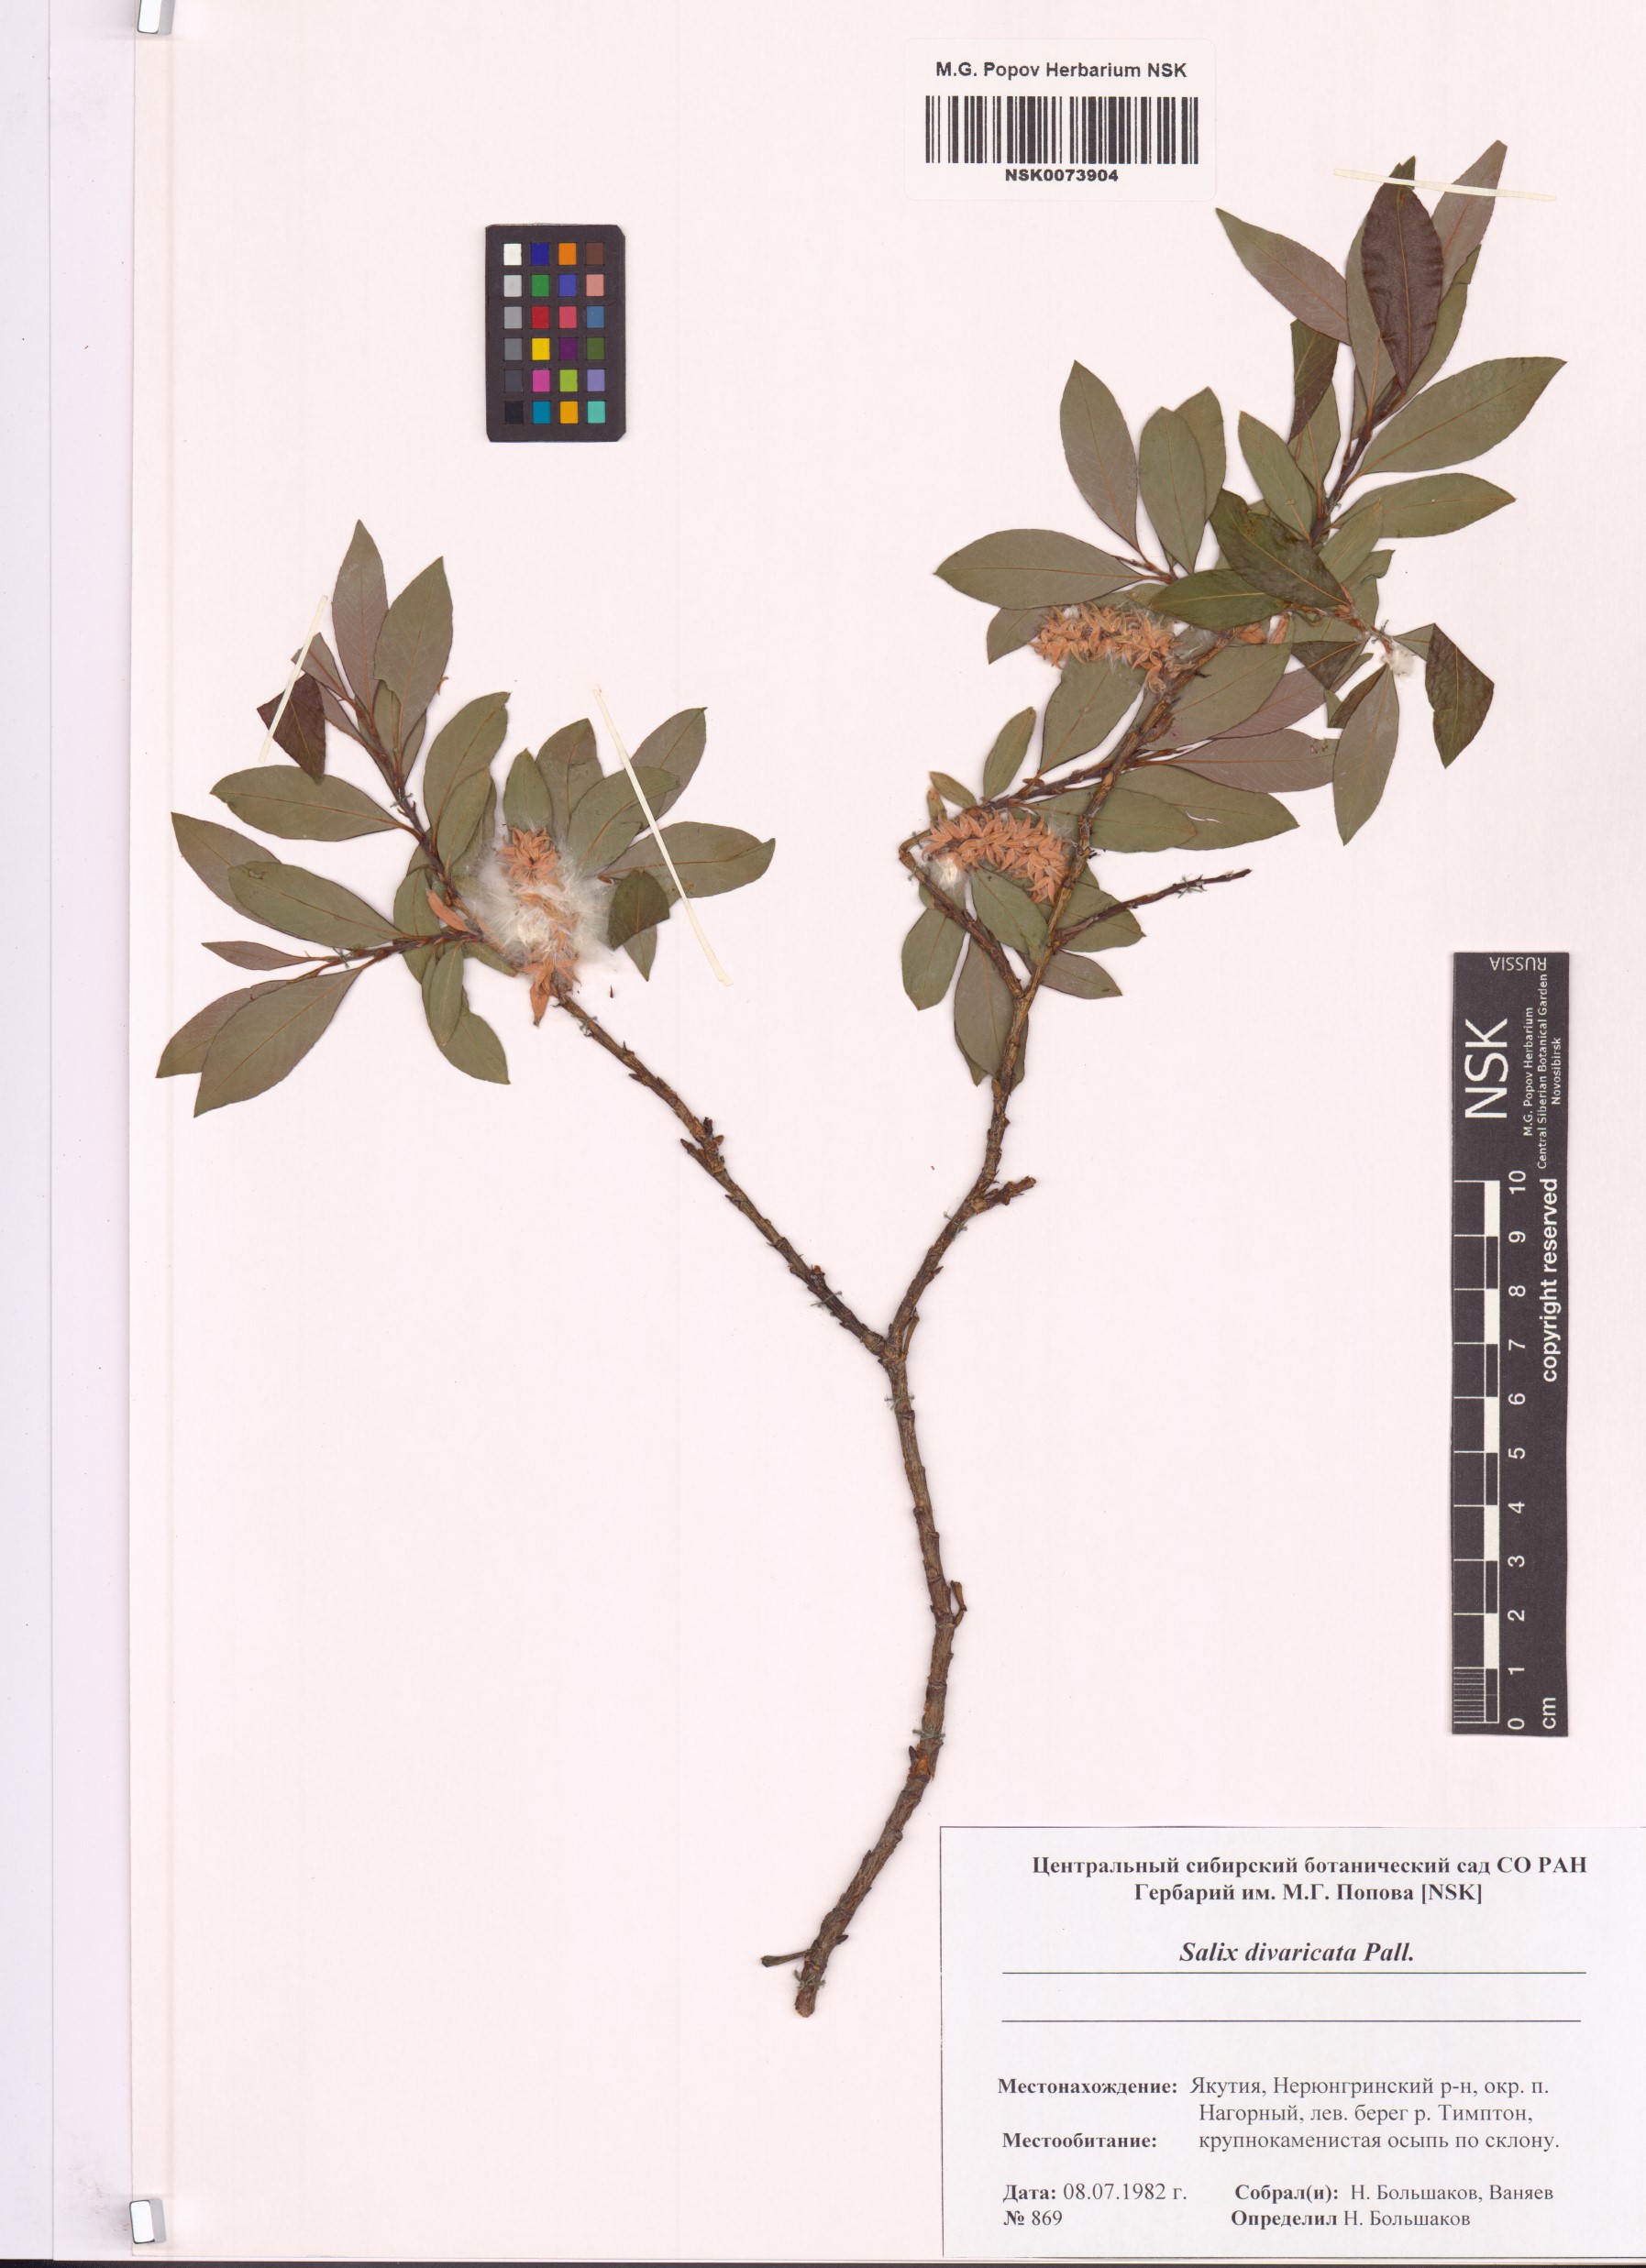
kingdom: Plantae
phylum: Tracheophyta
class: Magnoliopsida
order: Malpighiales
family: Salicaceae
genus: Salix
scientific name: Salix divaricata
